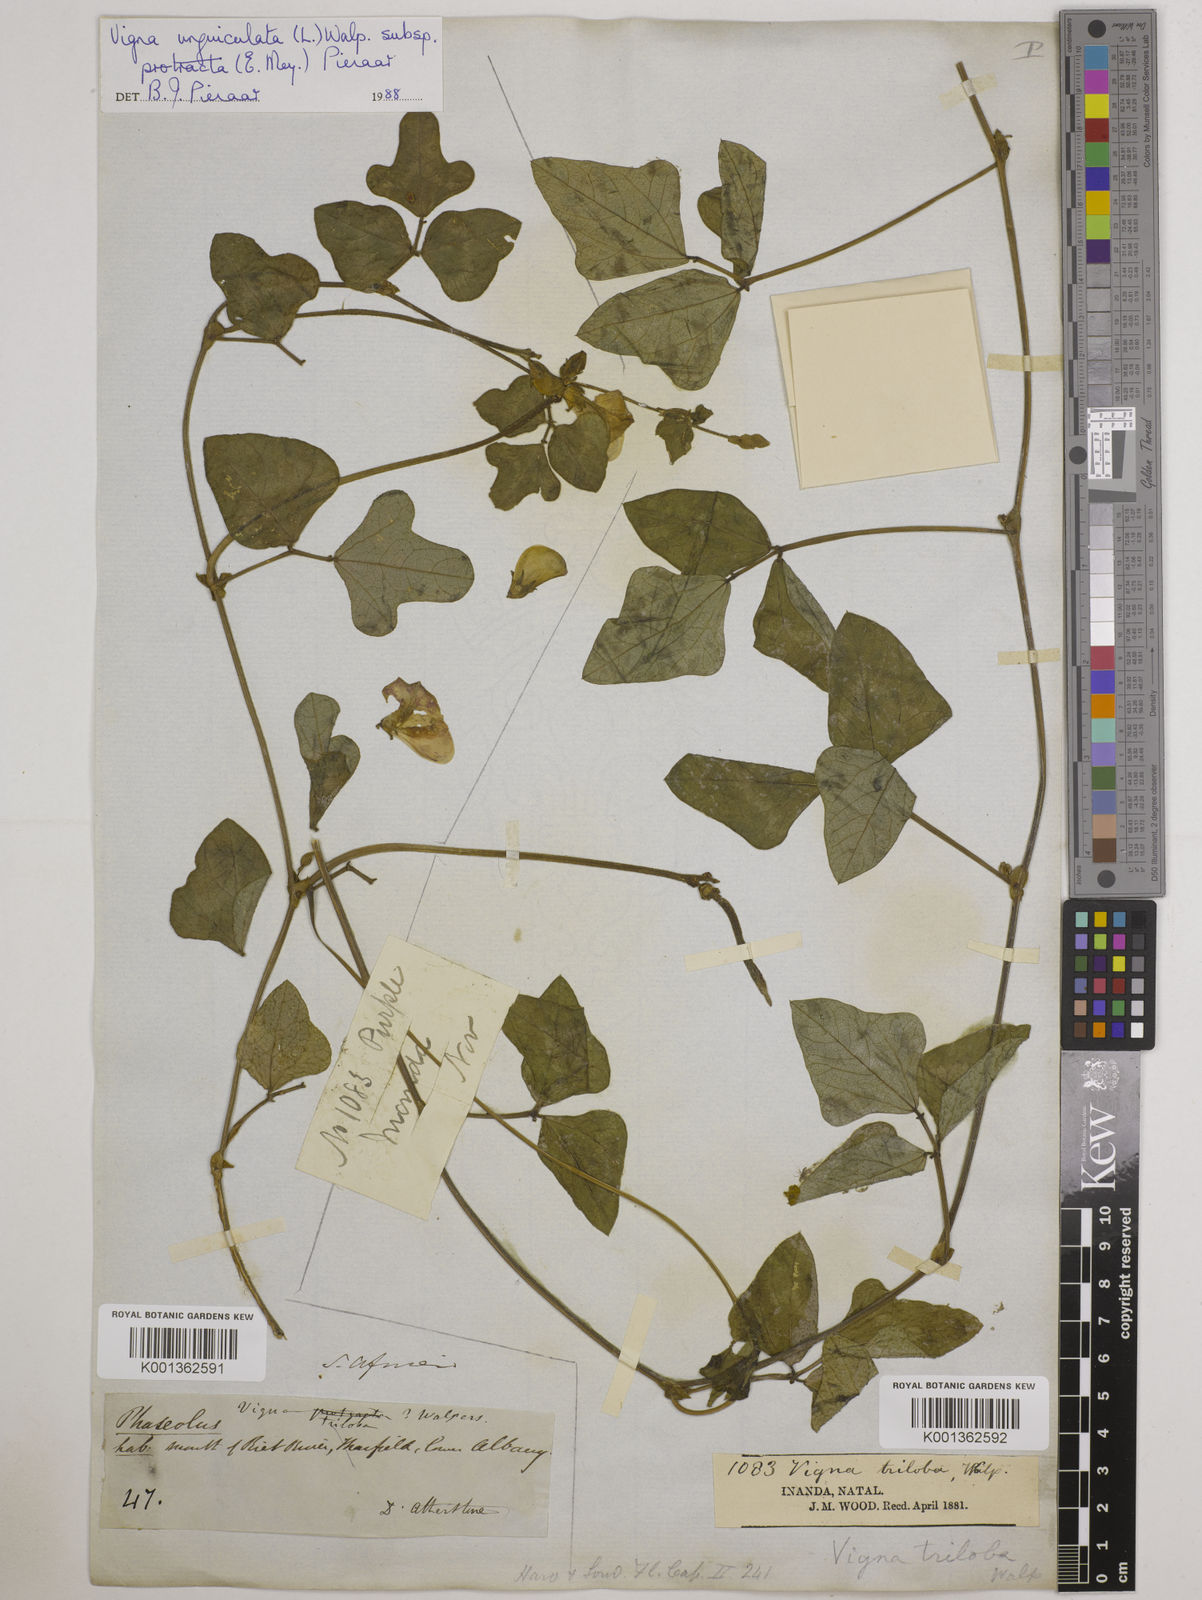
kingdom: Plantae
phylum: Tracheophyta
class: Magnoliopsida
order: Fabales
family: Fabaceae
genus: Vigna
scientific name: Vigna unguiculata
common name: Cowpea
